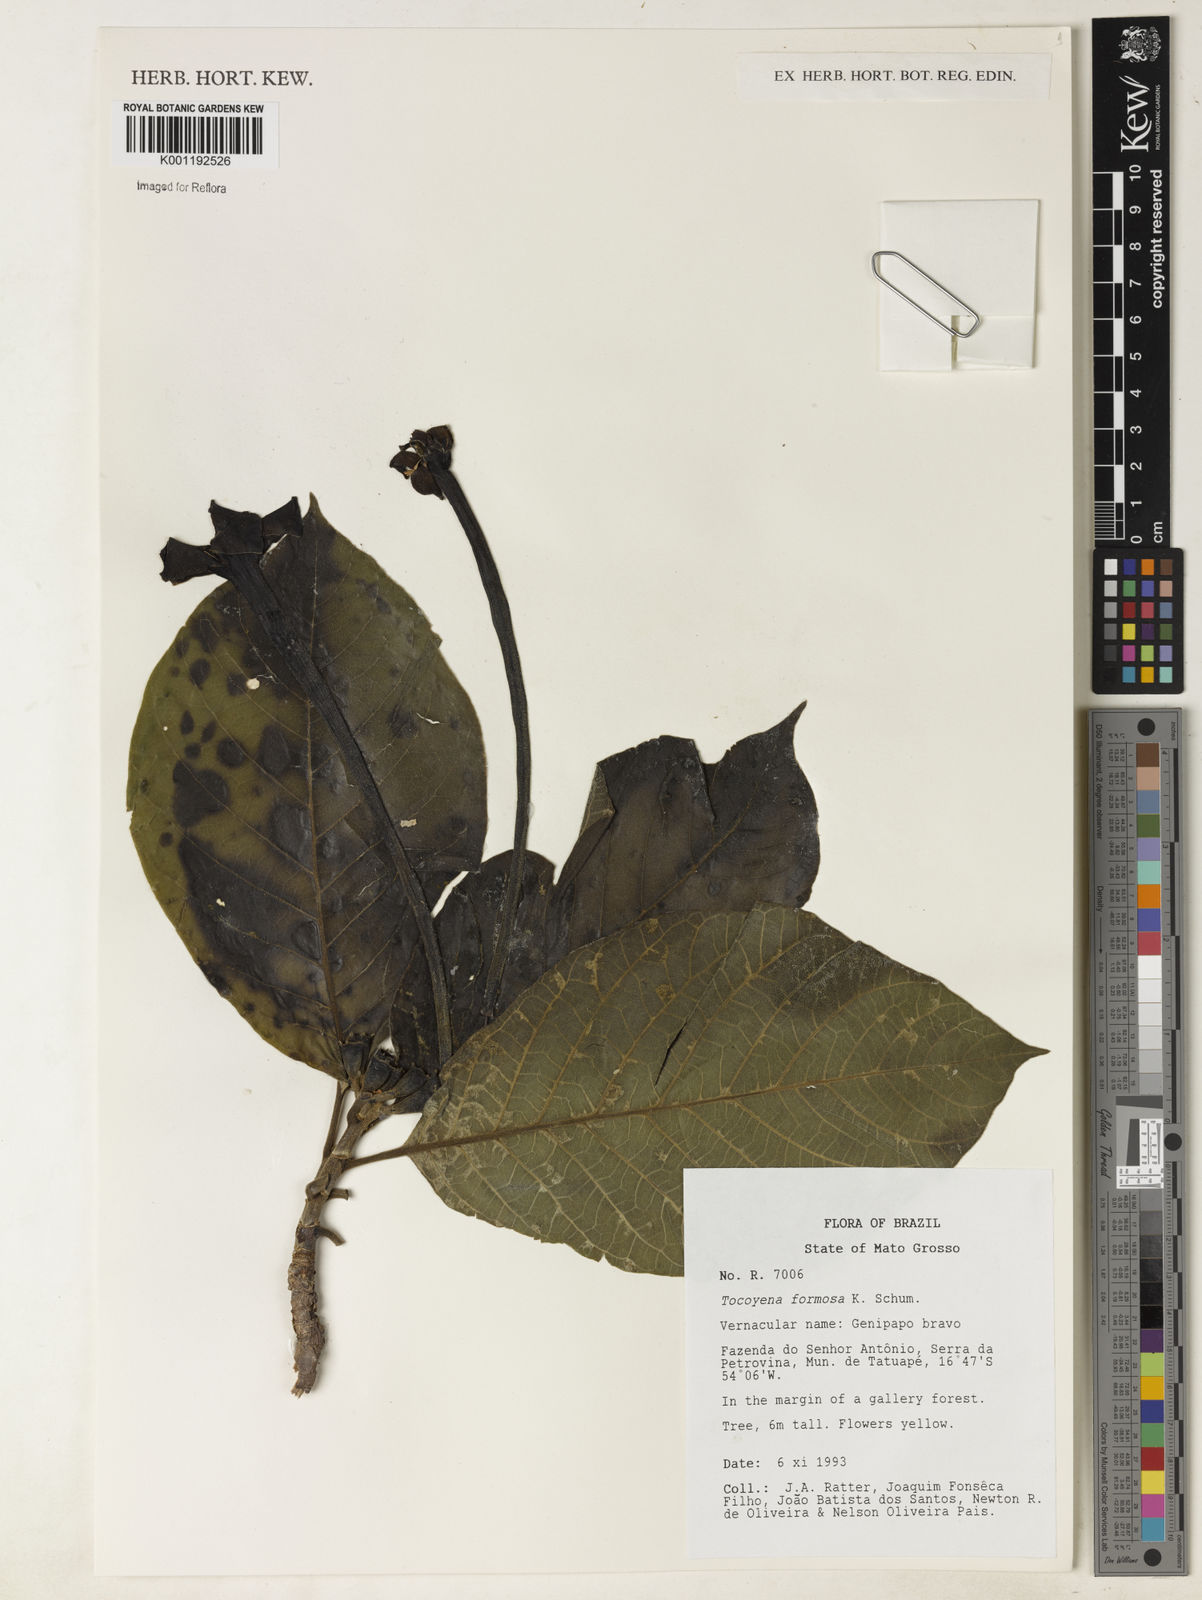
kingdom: Plantae
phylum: Tracheophyta
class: Magnoliopsida
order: Gentianales
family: Rubiaceae
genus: Tocoyena
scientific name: Tocoyena formosa
